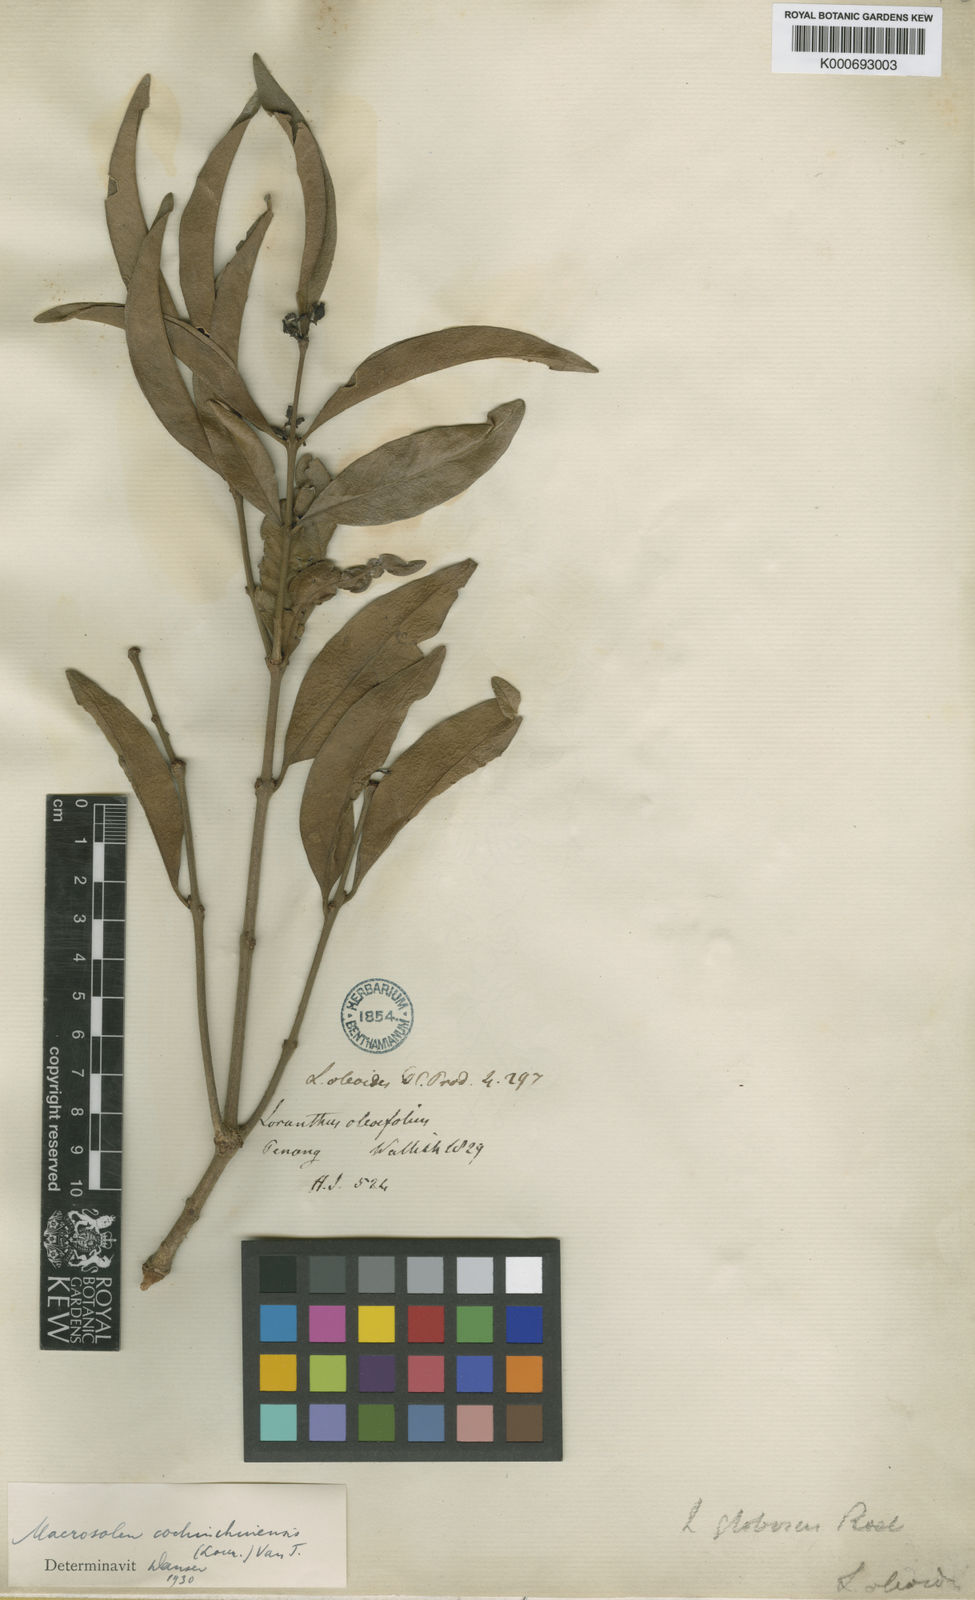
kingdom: Plantae
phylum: Tracheophyta
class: Magnoliopsida
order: Santalales
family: Loranthaceae
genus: Macrosolen
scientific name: Macrosolen cochinchinensis
